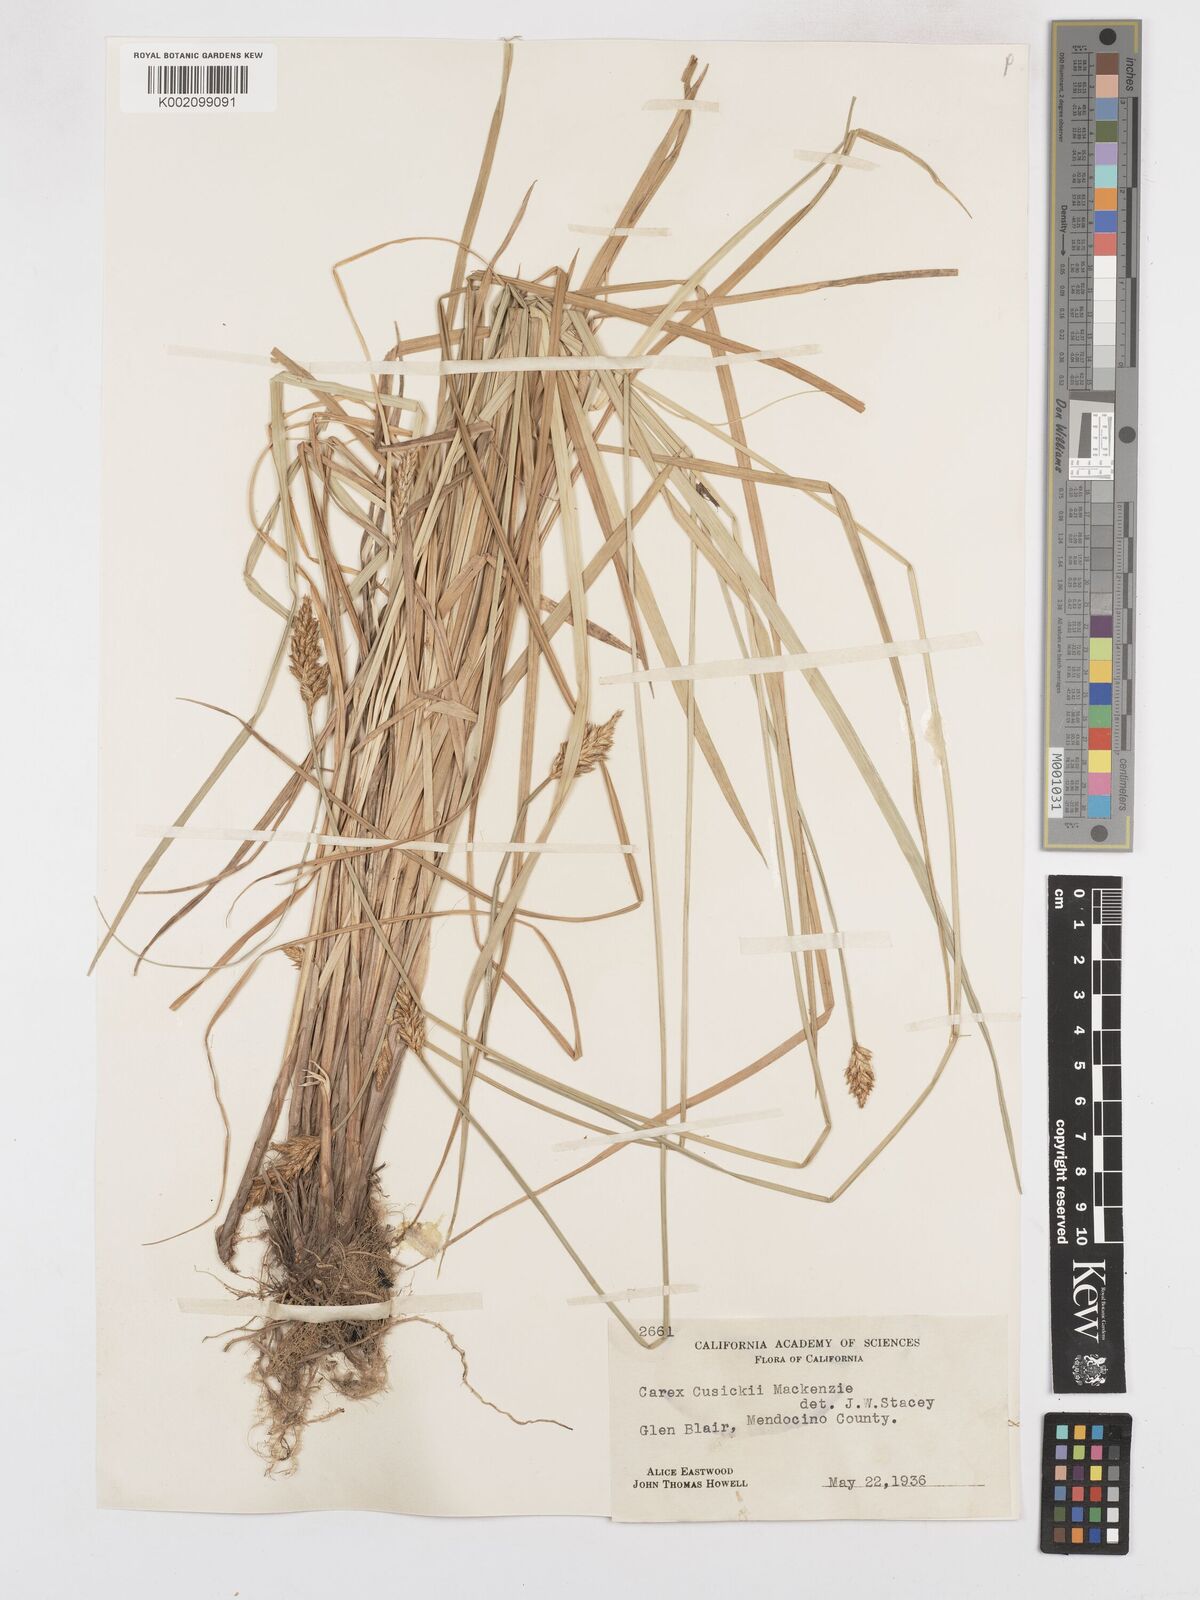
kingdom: Plantae
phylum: Tracheophyta
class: Liliopsida
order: Poales
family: Cyperaceae
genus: Carex
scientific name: Carex cusickii
